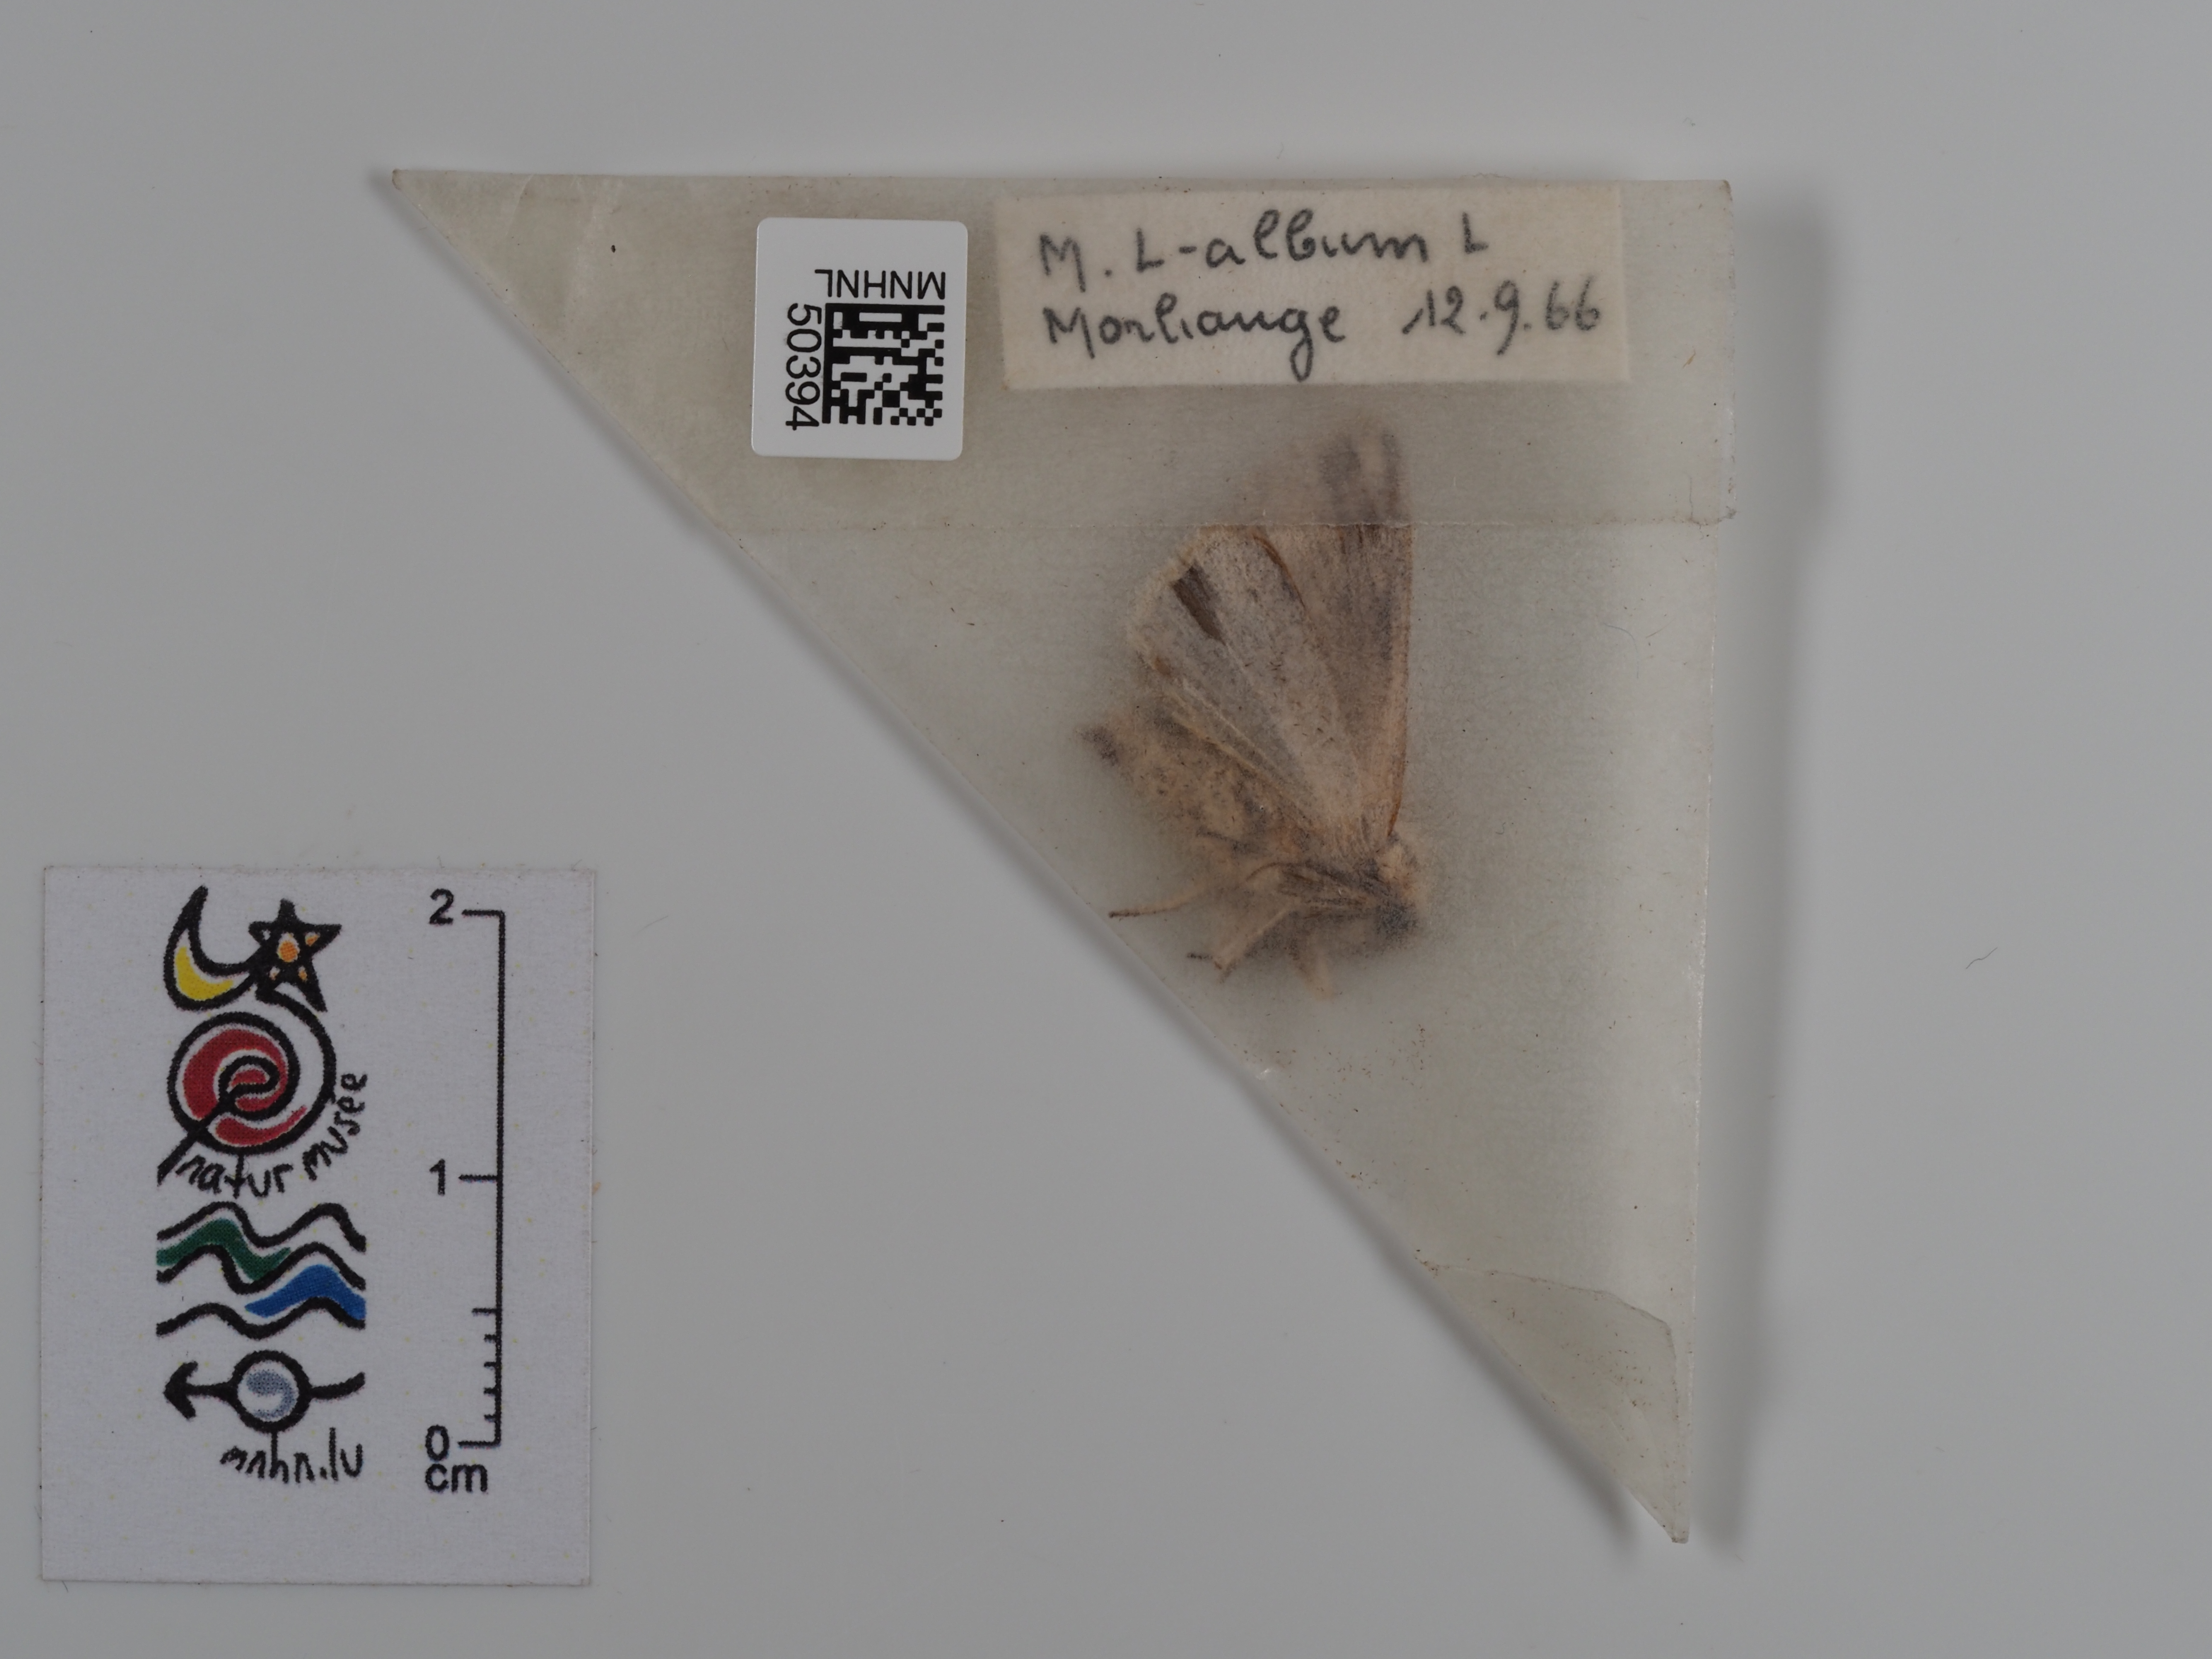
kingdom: Animalia
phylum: Arthropoda
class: Insecta
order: Lepidoptera
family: Noctuidae
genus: Mythimna
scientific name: Mythimna l-album
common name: L-album wainscot
